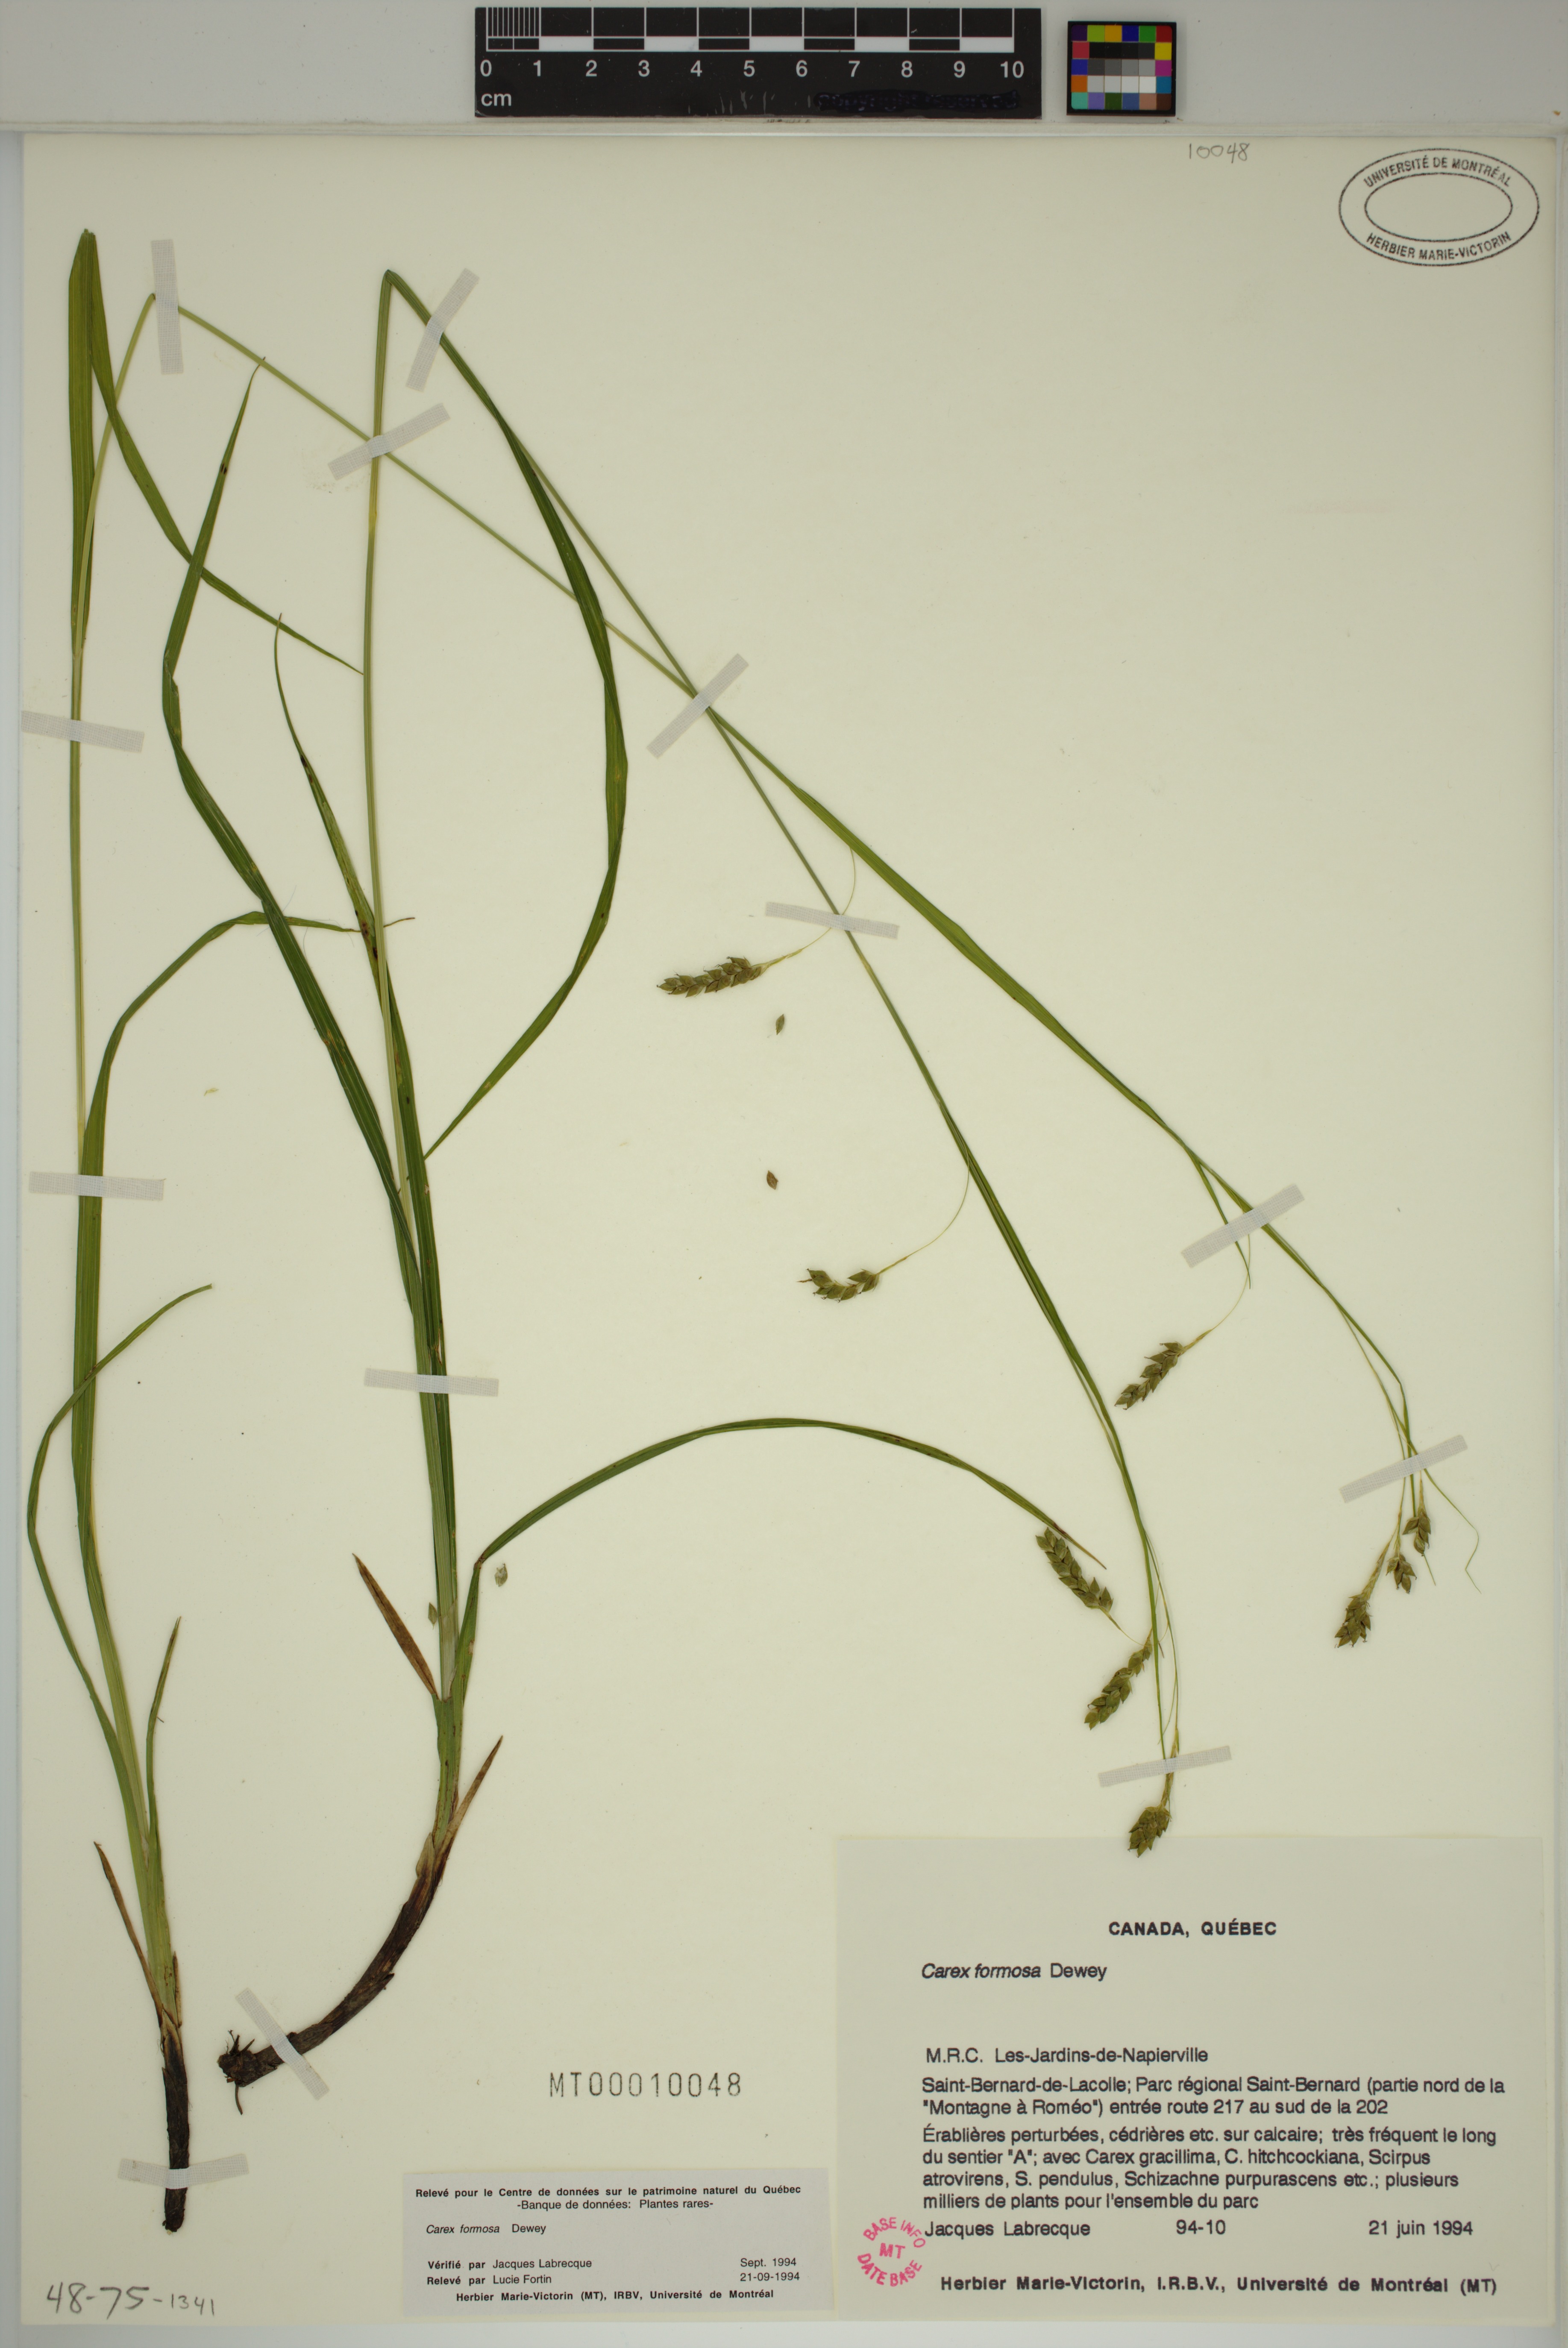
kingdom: Plantae
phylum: Tracheophyta
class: Liliopsida
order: Poales
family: Cyperaceae
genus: Carex
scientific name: Carex formosa
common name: Awnless graceful sedge
